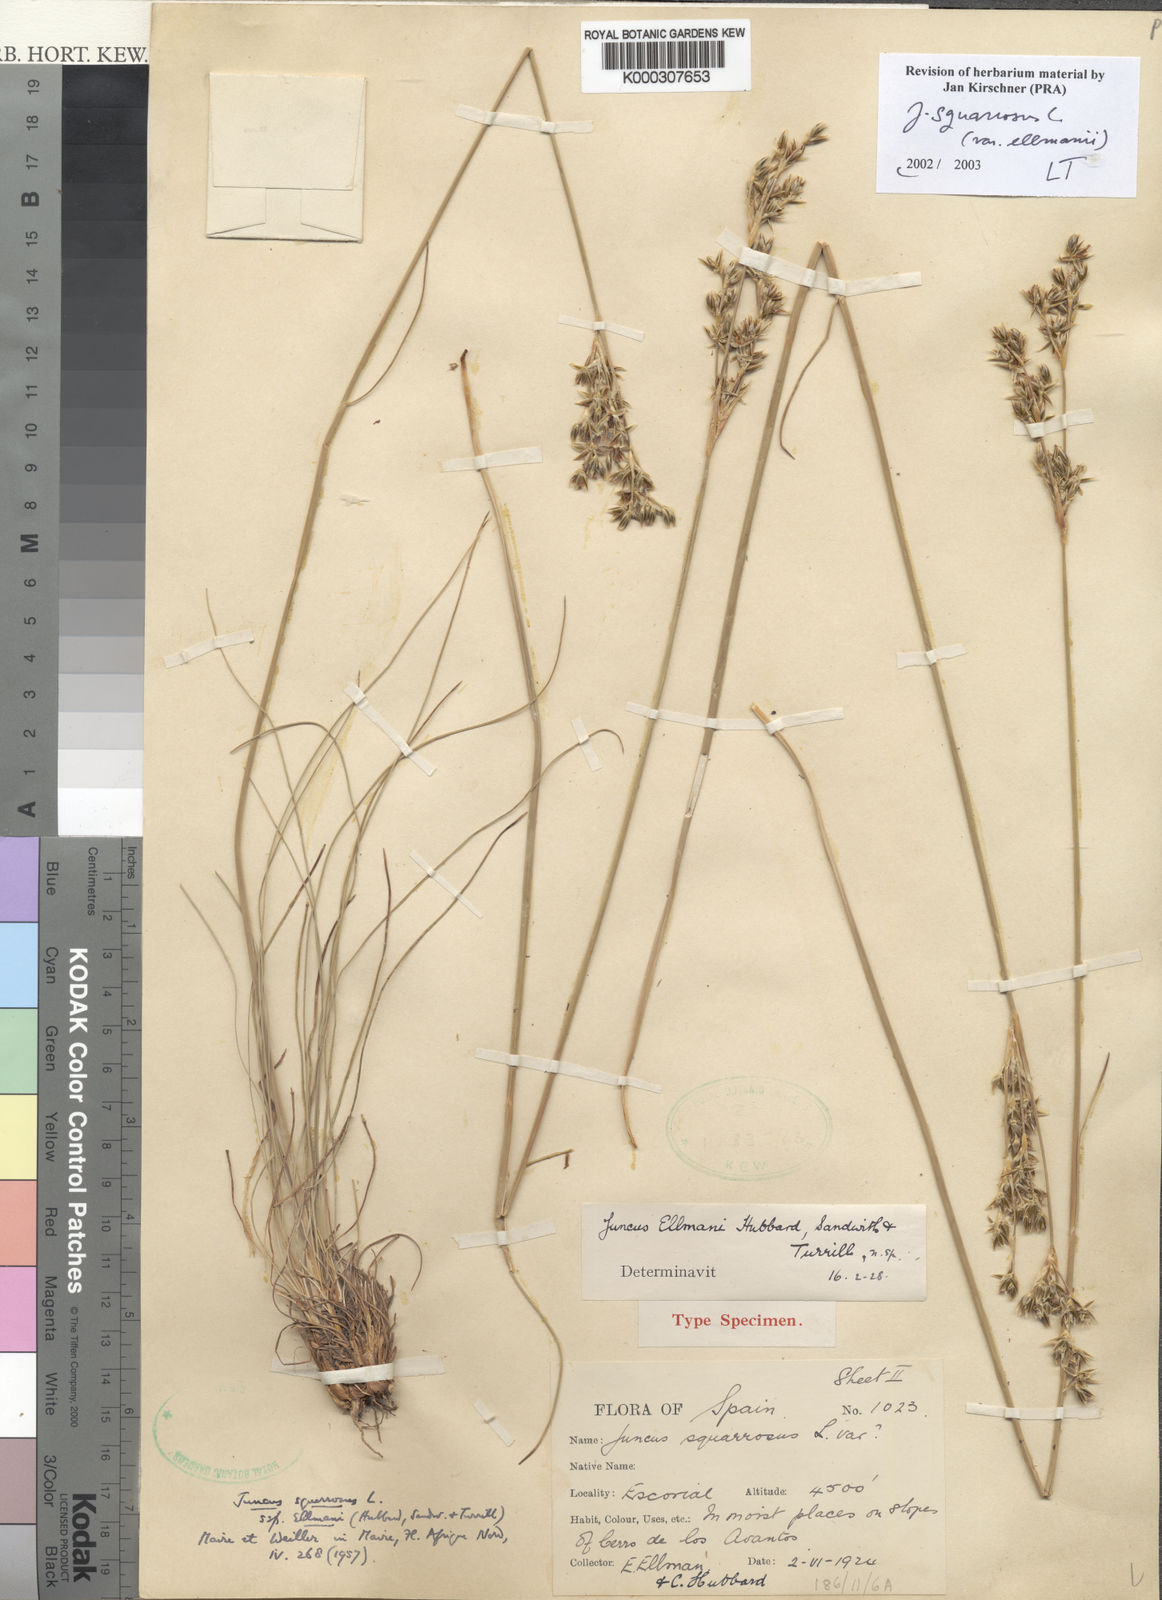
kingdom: Plantae
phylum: Tracheophyta
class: Liliopsida
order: Poales
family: Juncaceae
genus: Juncus
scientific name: Juncus squarrosus
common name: Heath rush
